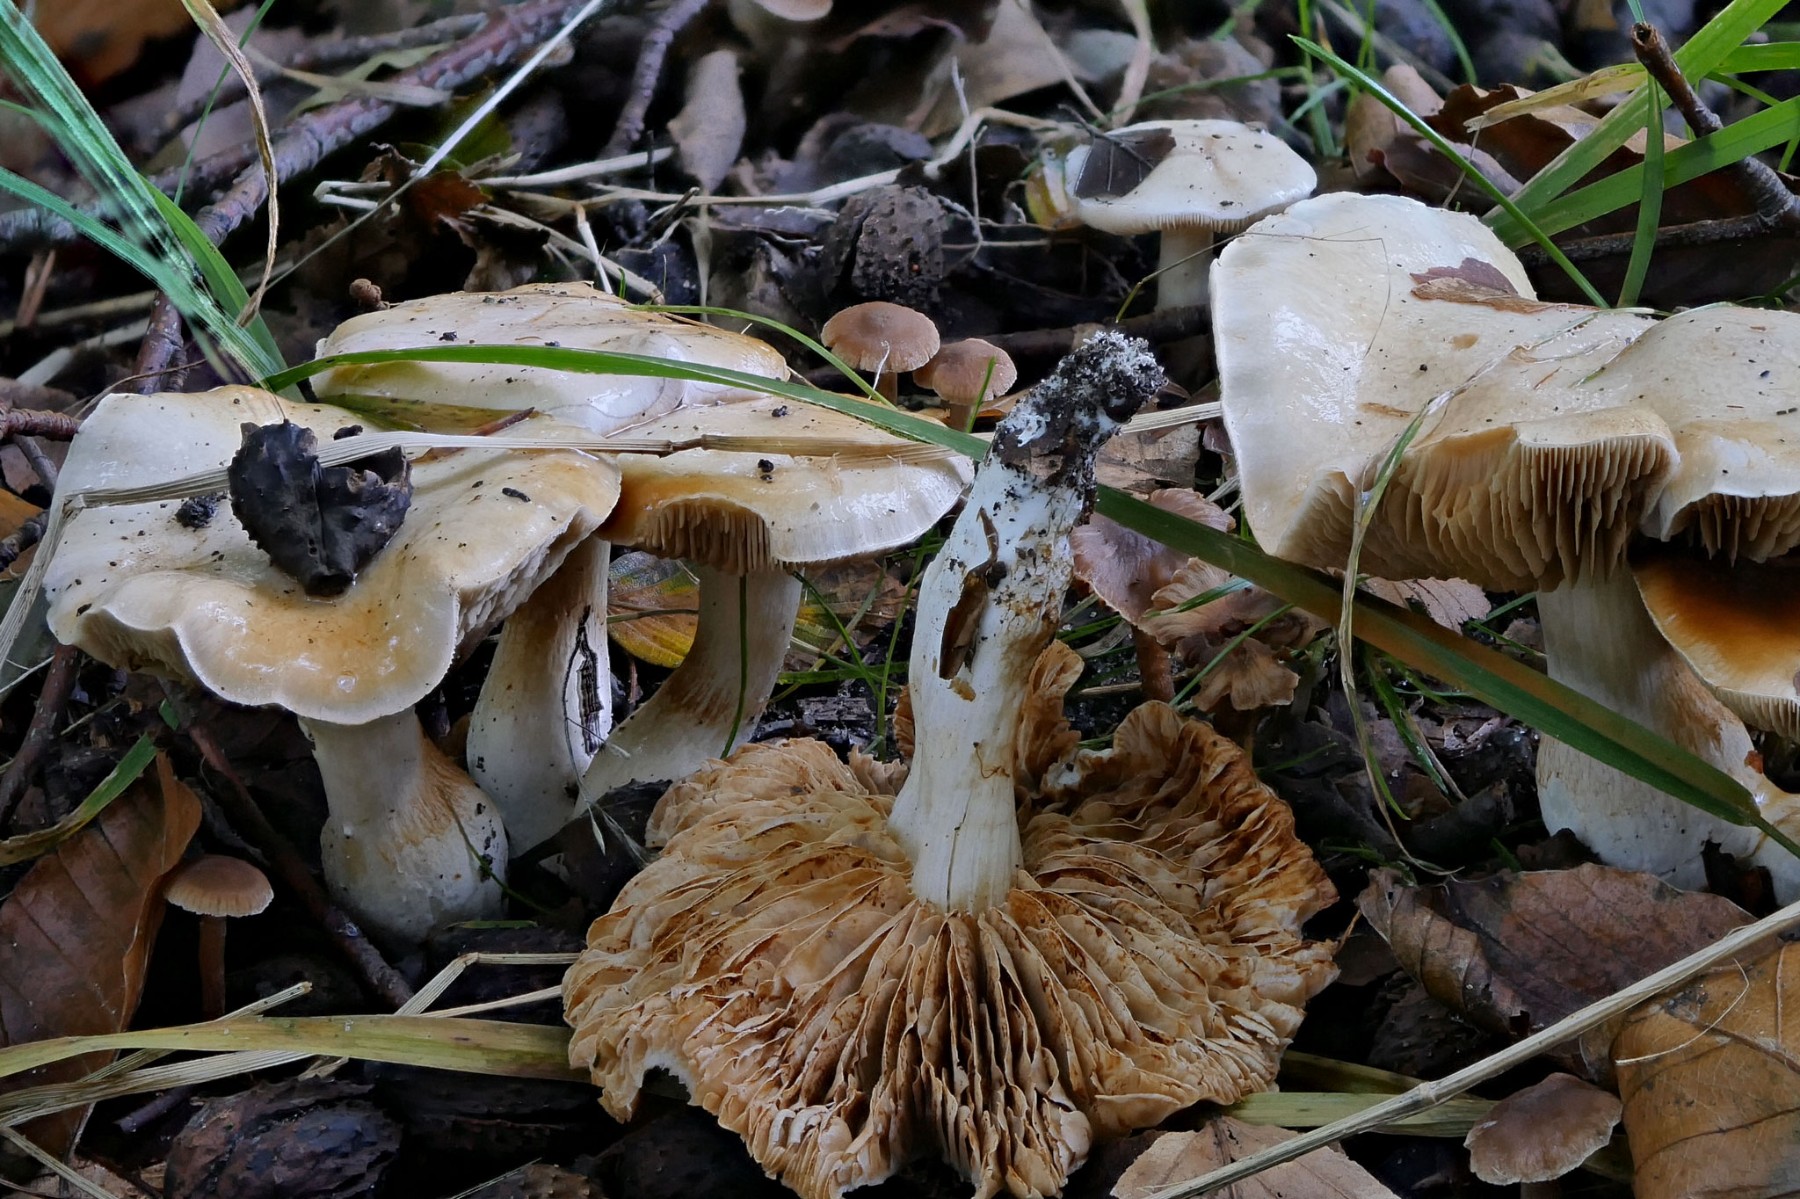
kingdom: Fungi
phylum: Basidiomycota
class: Agaricomycetes
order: Agaricales
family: Cortinariaceae
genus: Thaxterogaster
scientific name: Thaxterogaster leucoluteolus
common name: isabella slørhat
